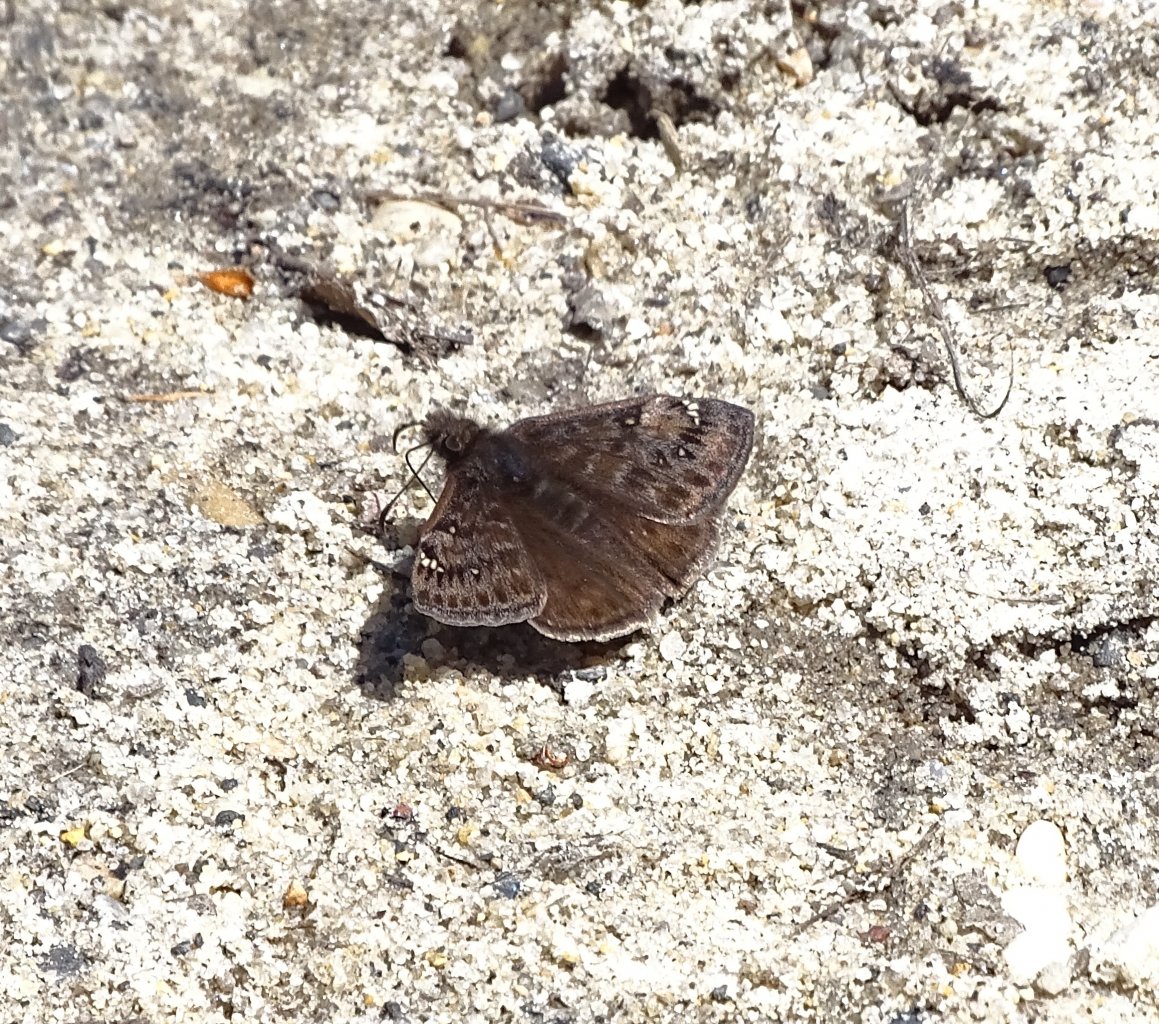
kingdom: Animalia
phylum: Arthropoda
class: Insecta
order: Lepidoptera
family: Hesperiidae
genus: Gesta
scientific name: Gesta
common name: Juvenal's Duskywing
